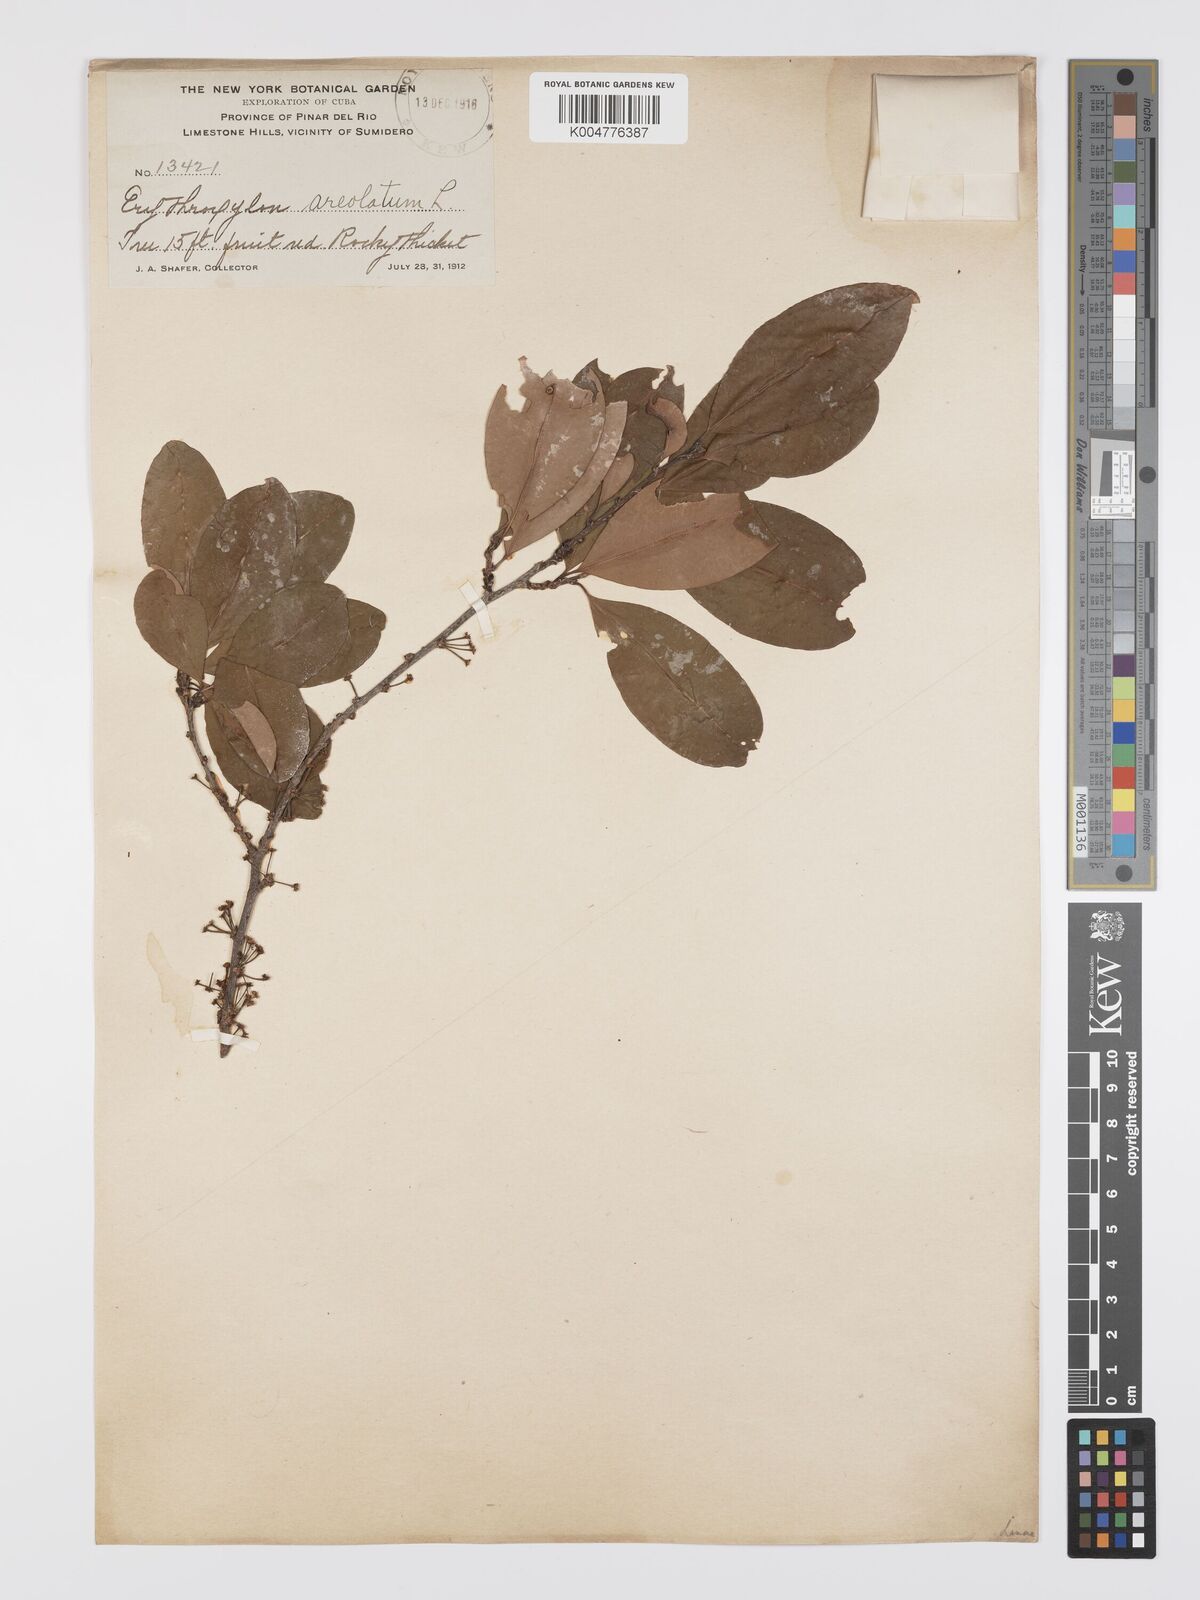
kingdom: Plantae
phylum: Tracheophyta
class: Magnoliopsida
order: Malpighiales
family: Erythroxylaceae
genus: Erythroxylum
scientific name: Erythroxylum areolatum
